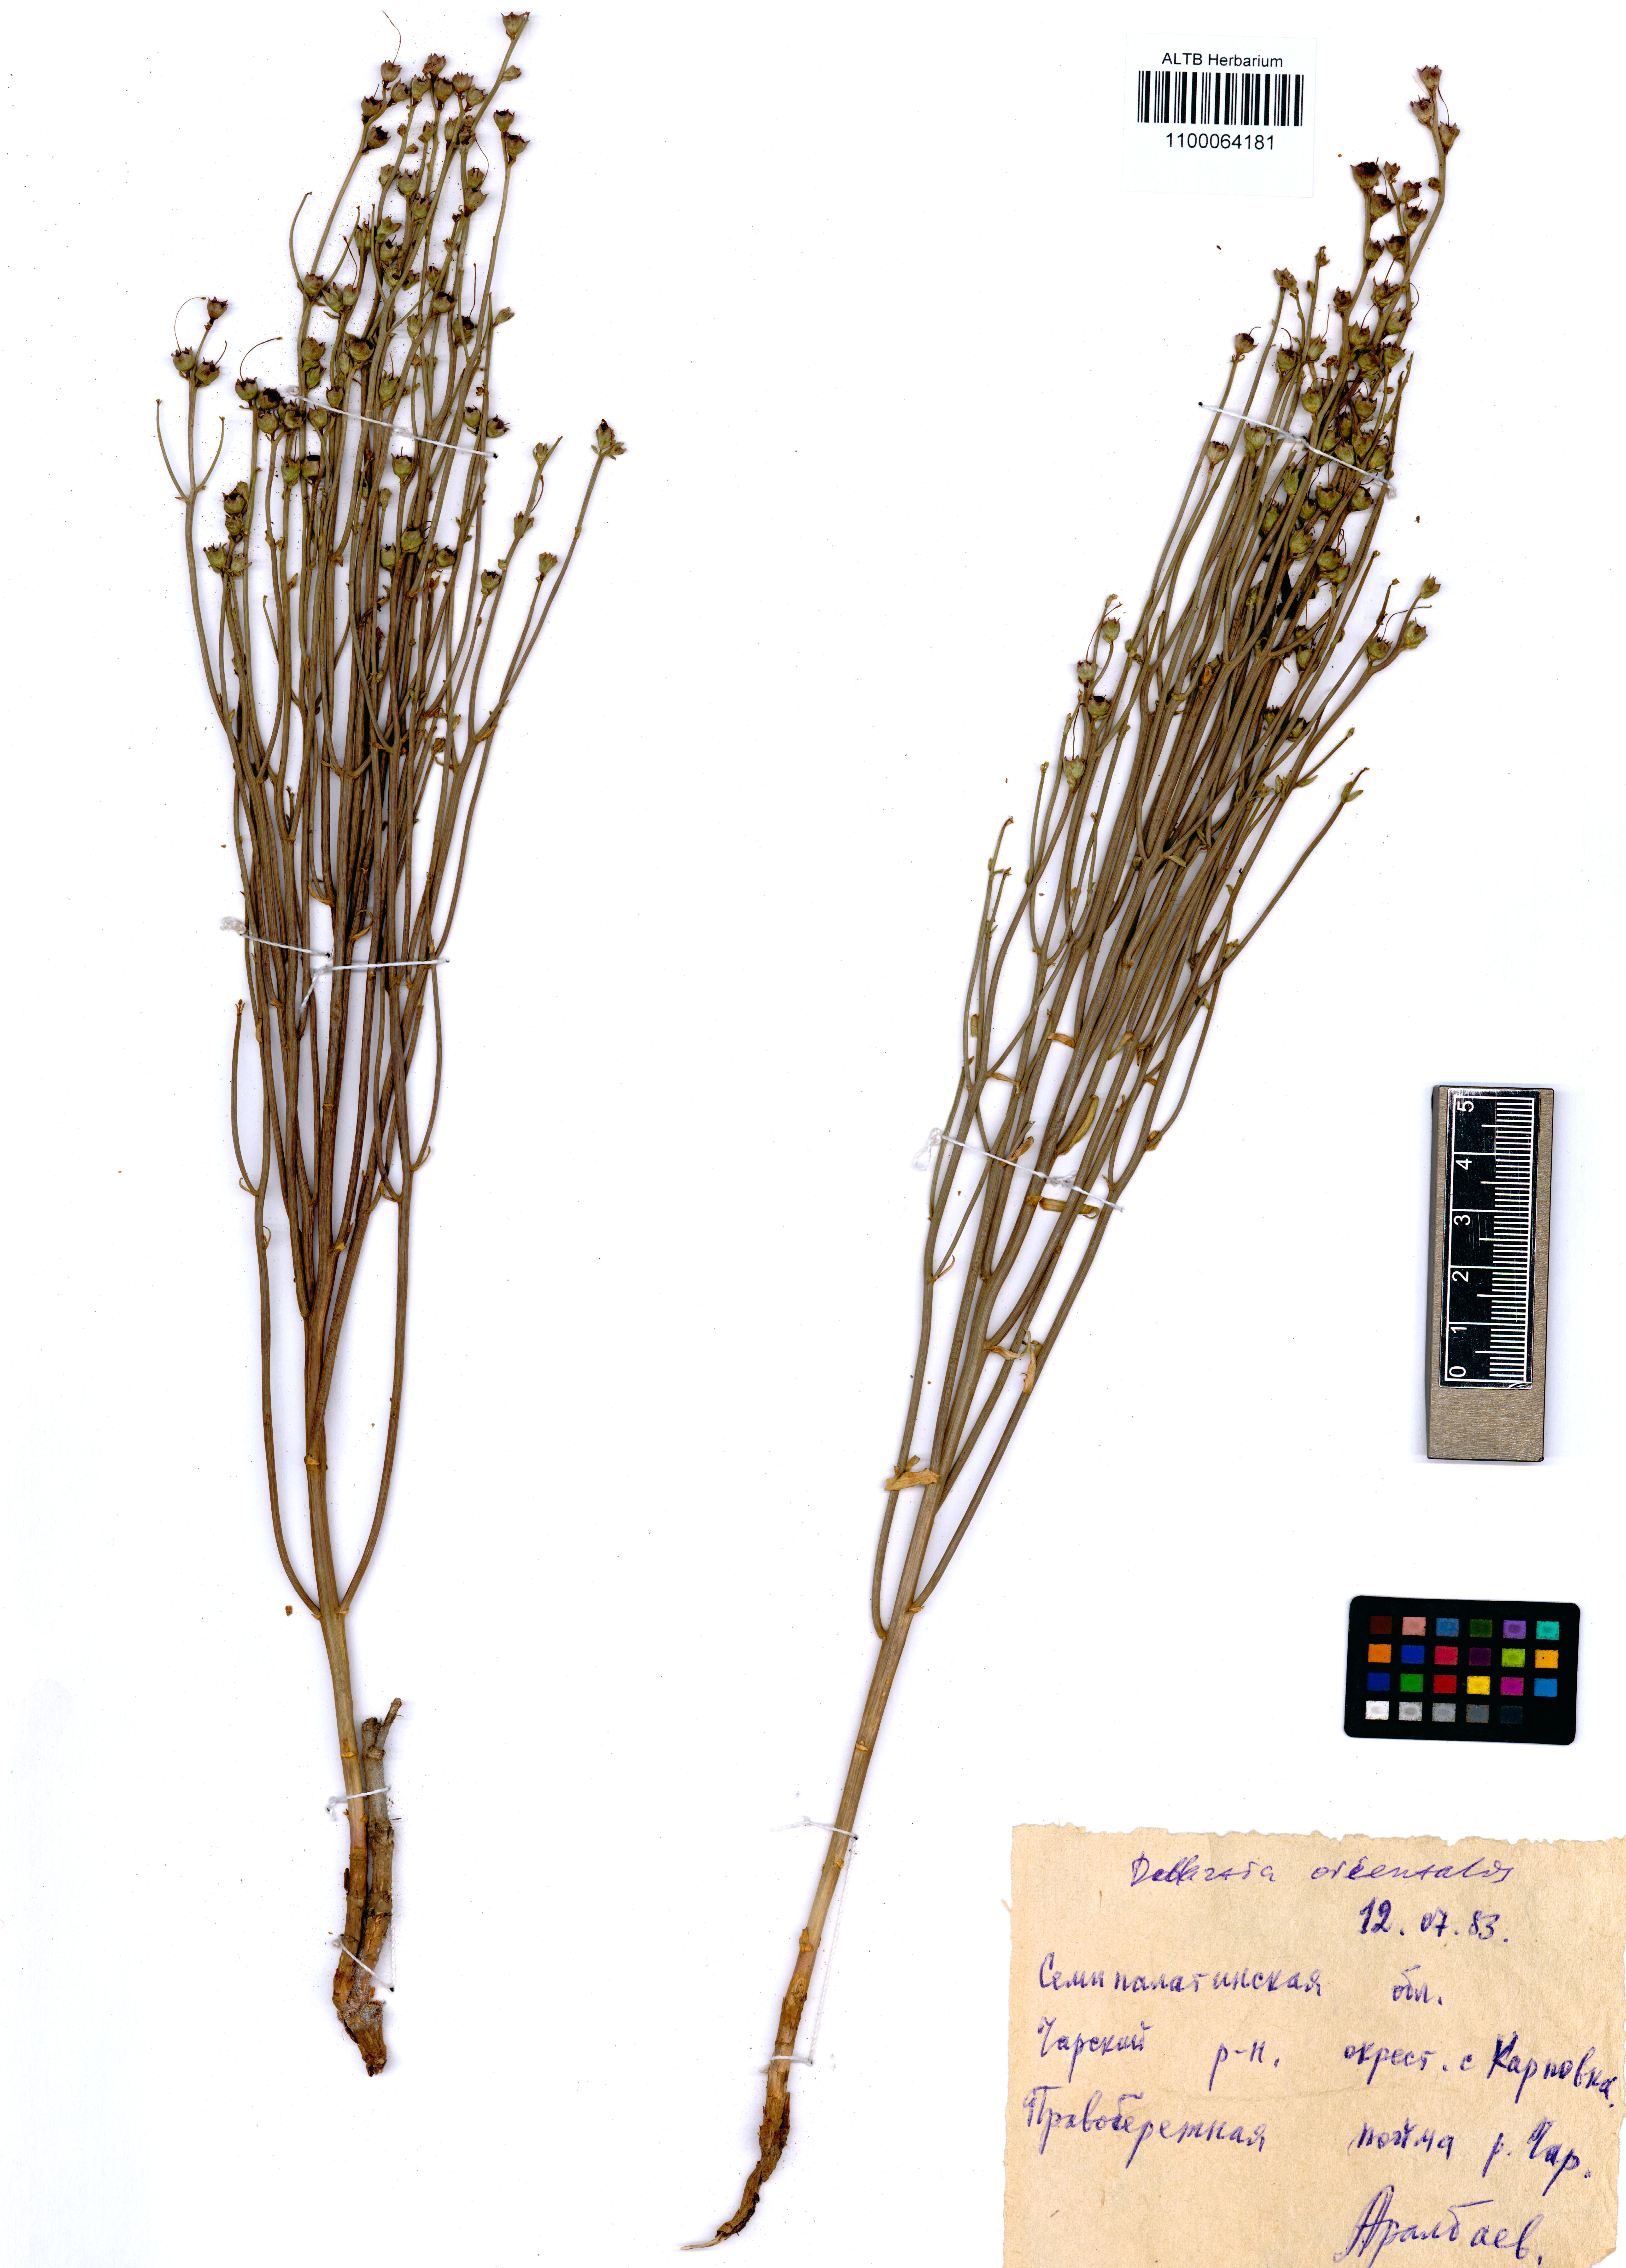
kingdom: Plantae
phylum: Tracheophyta
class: Magnoliopsida
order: Lamiales
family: Mazaceae
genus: Dodartia
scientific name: Dodartia orientalis
